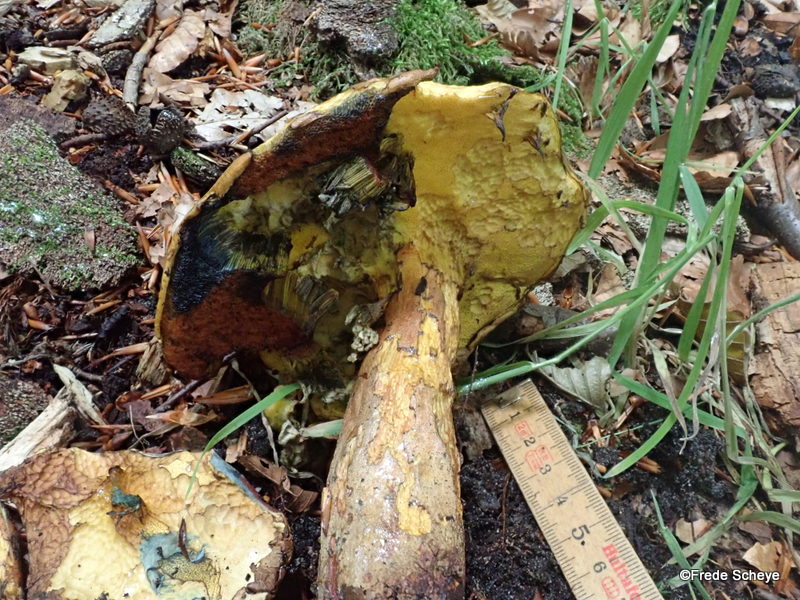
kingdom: Fungi
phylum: Basidiomycota
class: Agaricomycetes
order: Boletales
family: Boletaceae
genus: Neoboletus
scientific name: Neoboletus erythropus
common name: punktstokket indigorørhat
